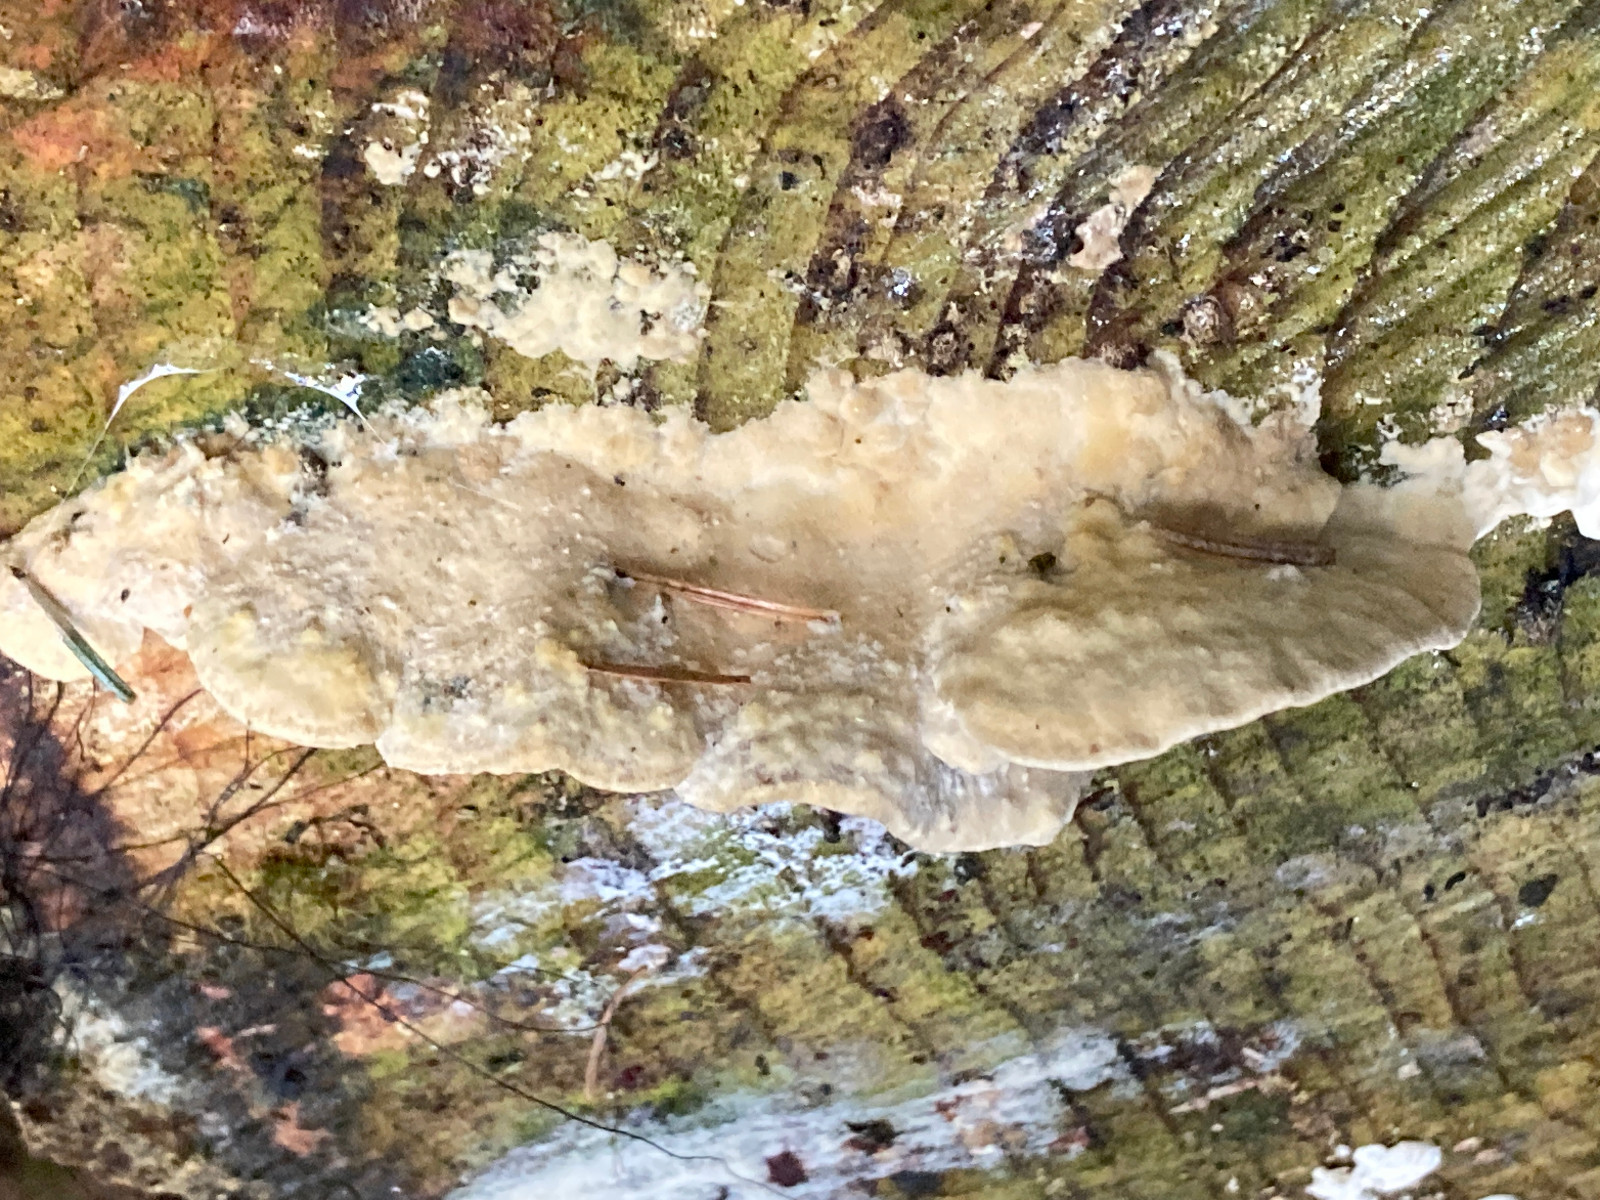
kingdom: Fungi
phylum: Basidiomycota
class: Agaricomycetes
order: Polyporales
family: Phanerochaetaceae
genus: Bjerkandera
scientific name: Bjerkandera adusta
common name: sveden sodporesvamp
